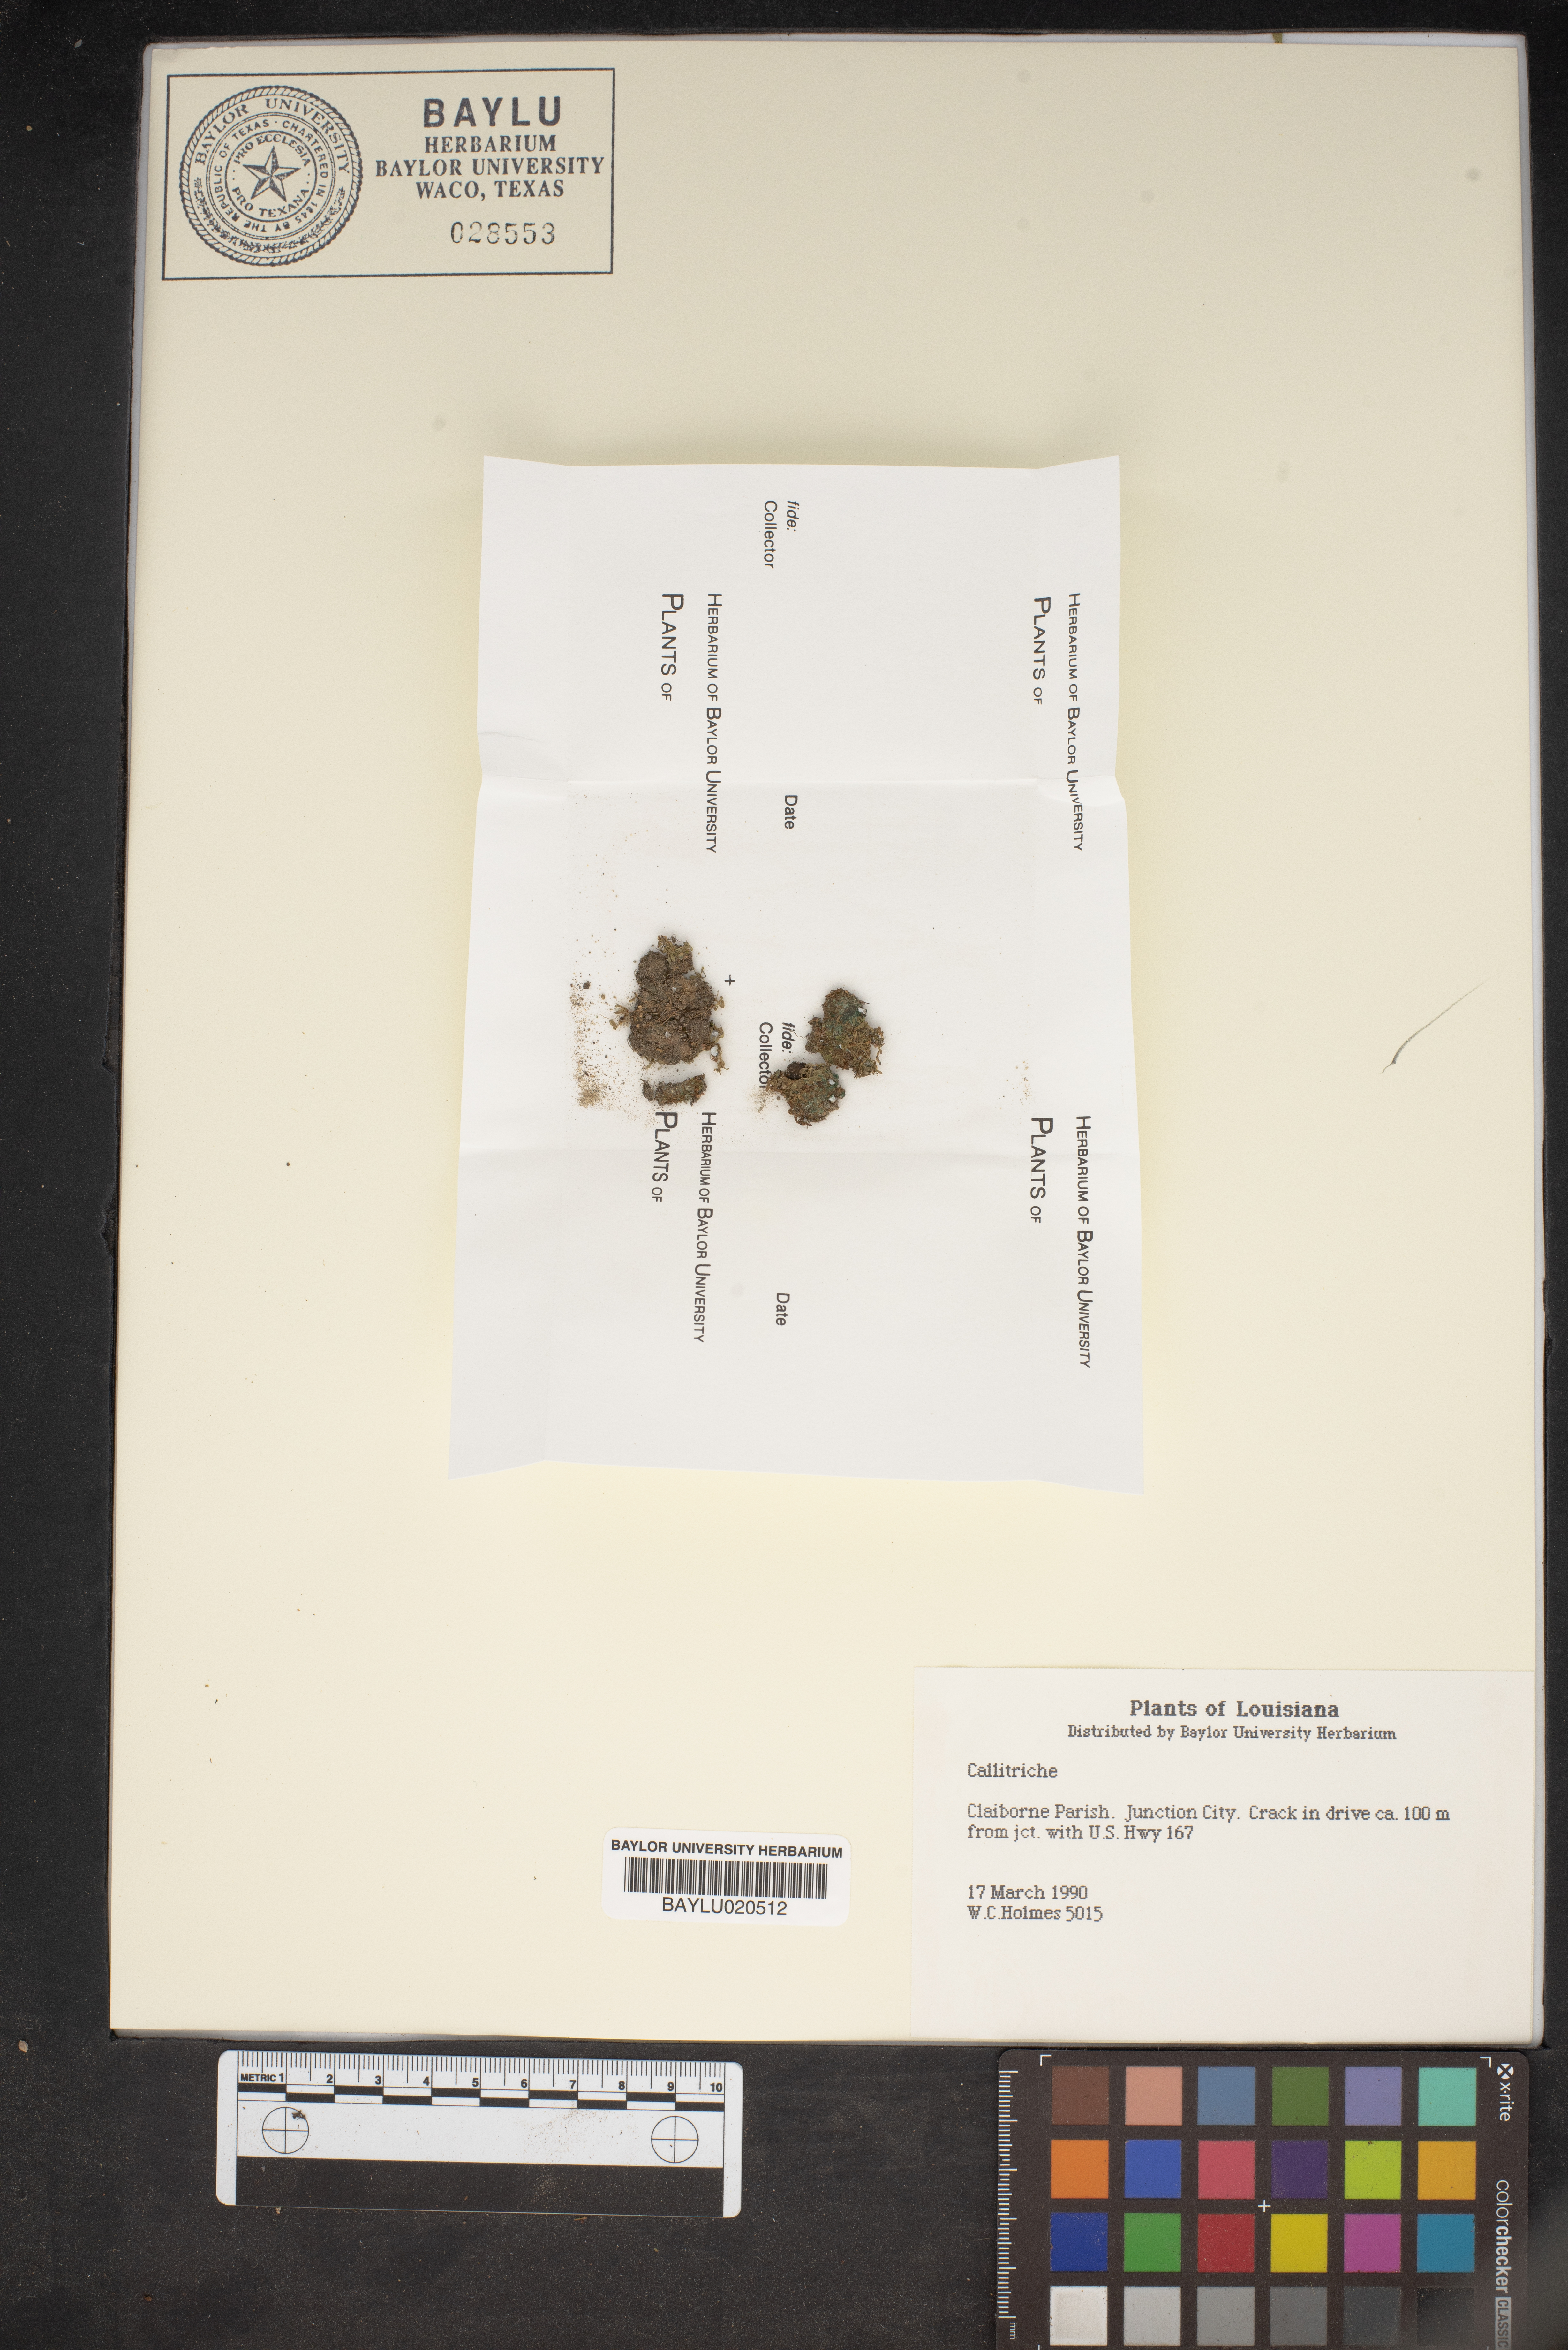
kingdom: Plantae
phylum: Tracheophyta
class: Magnoliopsida
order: Lamiales
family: Plantaginaceae
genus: Callitriche
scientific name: Callitriche
